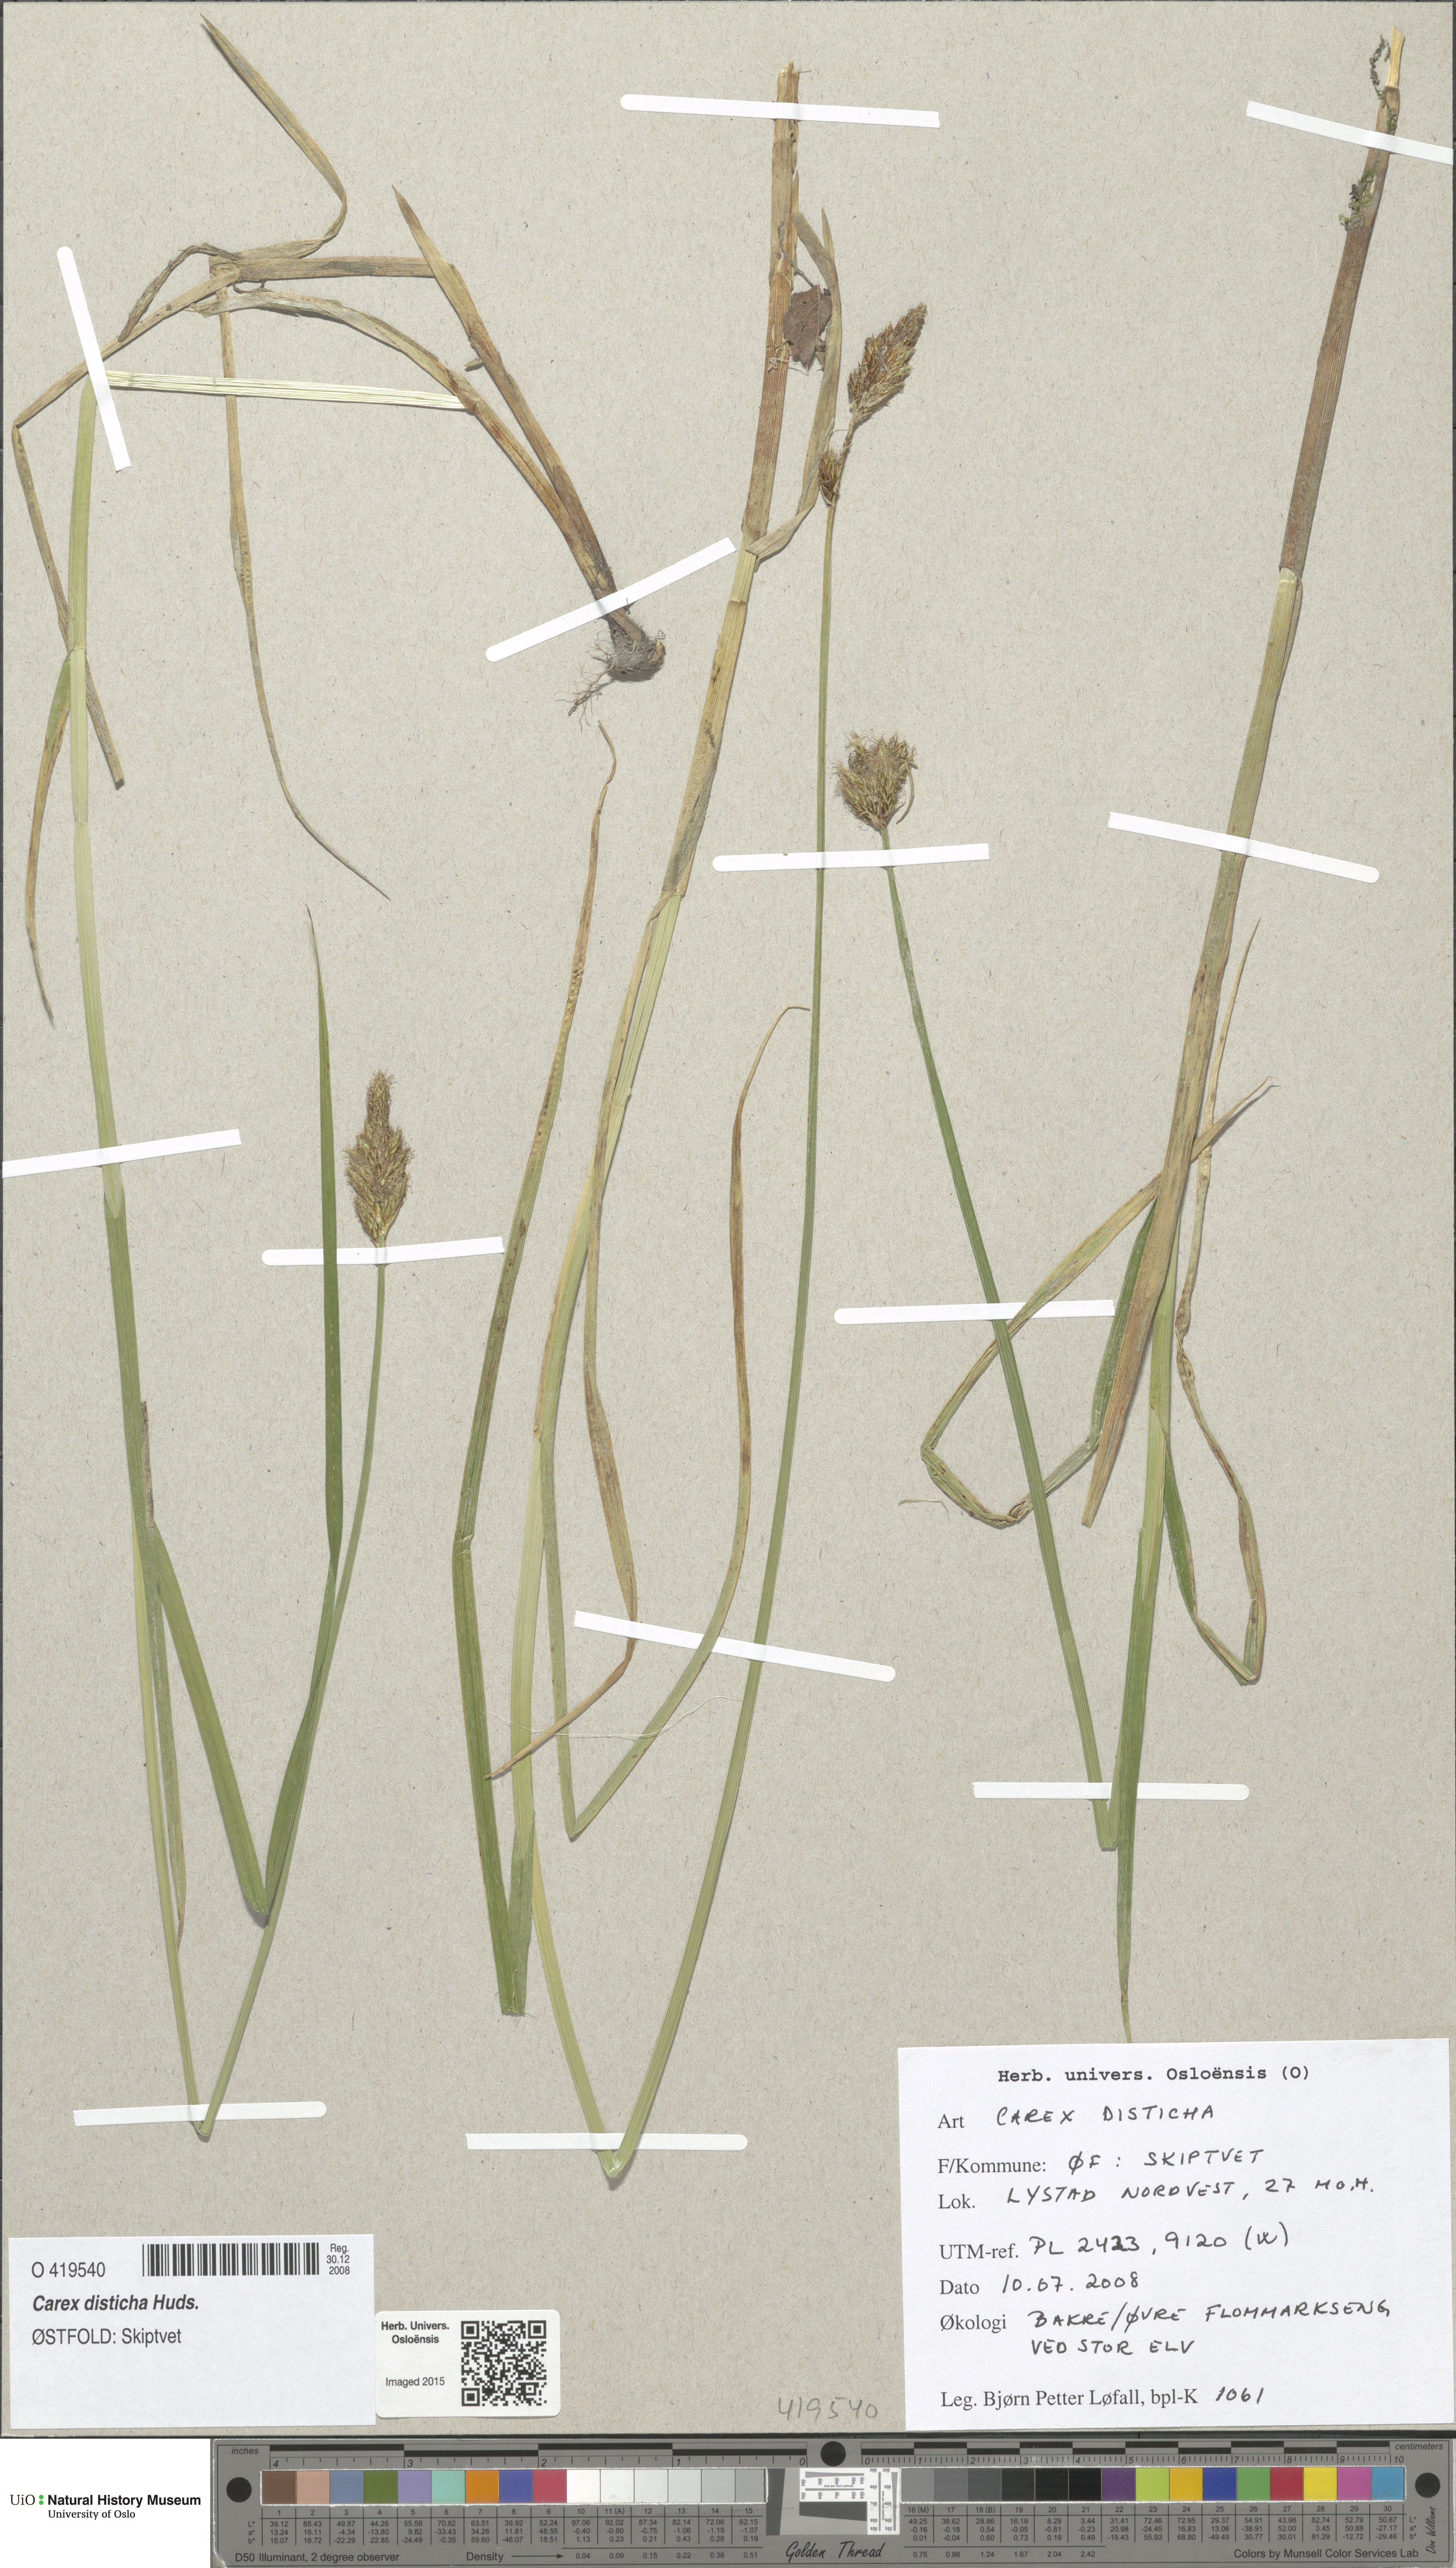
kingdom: Plantae
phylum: Tracheophyta
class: Liliopsida
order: Poales
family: Cyperaceae
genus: Carex
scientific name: Carex disticha
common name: Brown sedge
